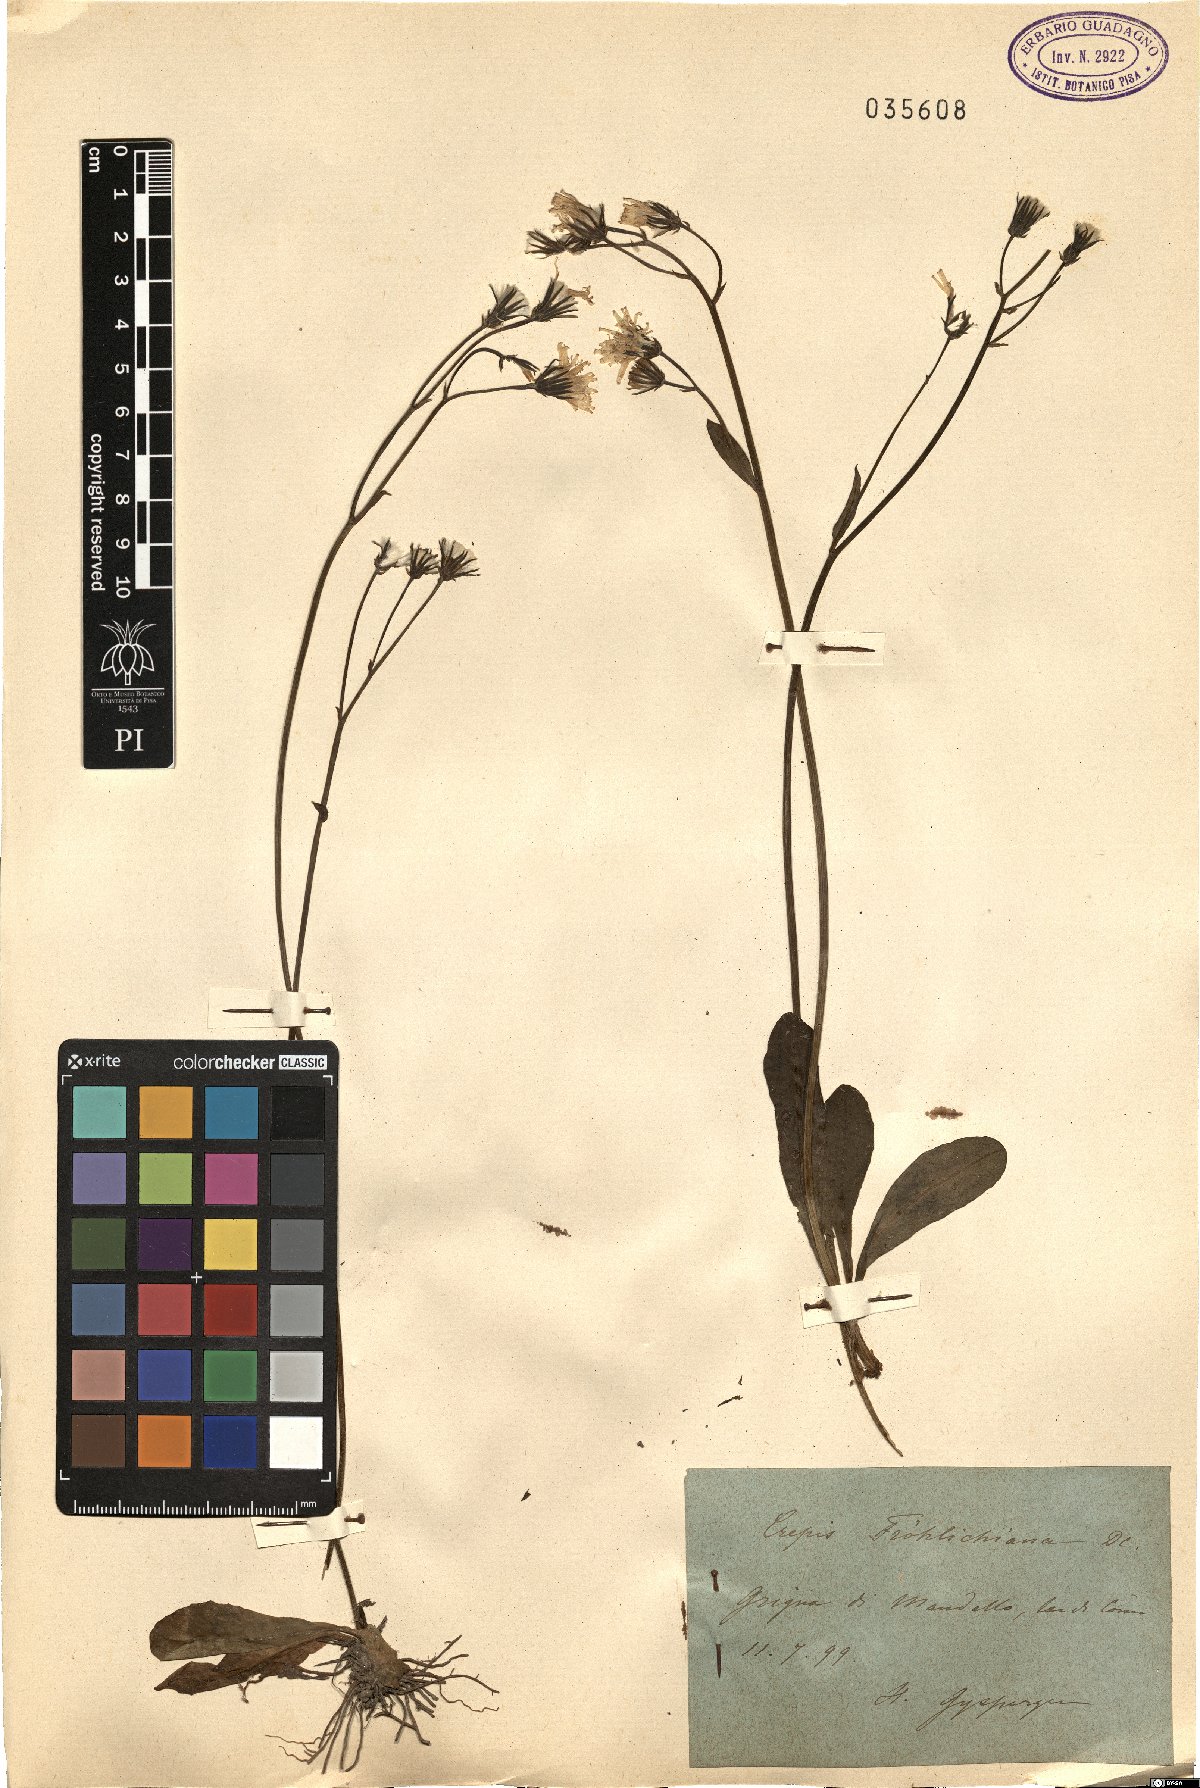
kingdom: Plantae
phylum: Tracheophyta
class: Magnoliopsida
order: Asterales
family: Asteraceae
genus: Crepis
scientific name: Crepis froelichiana
